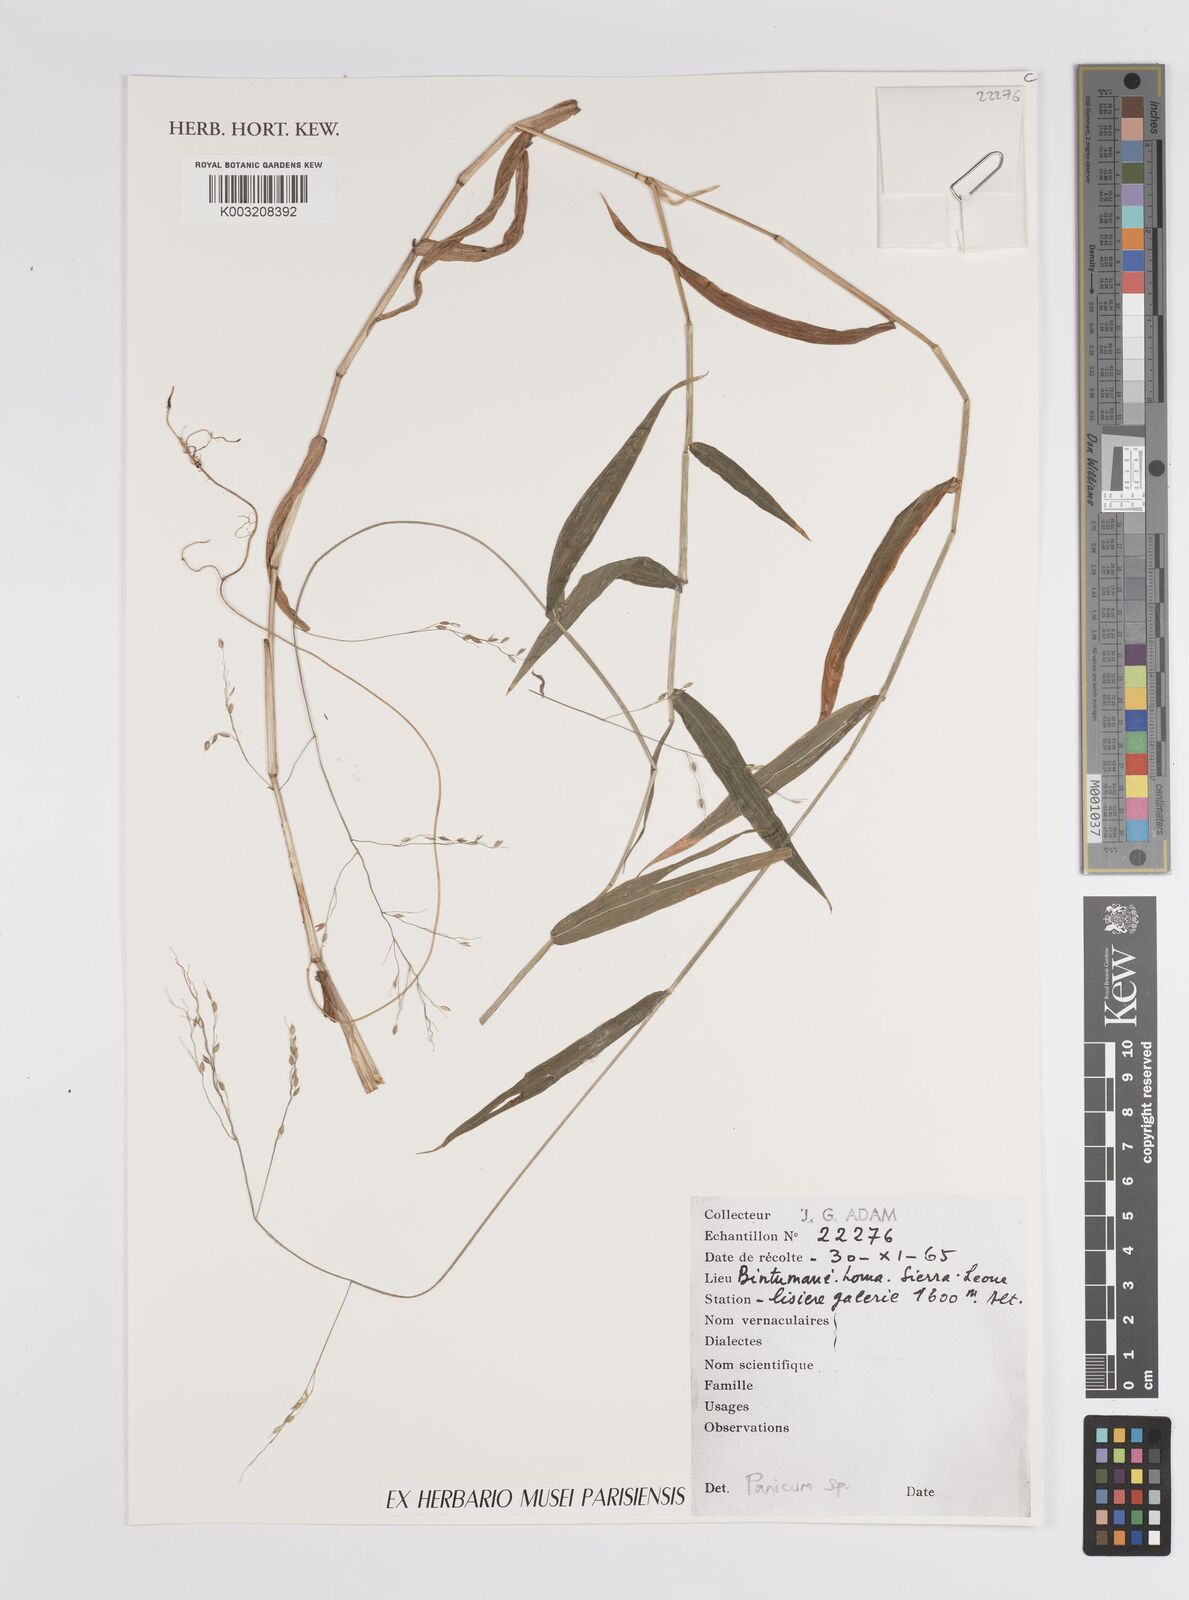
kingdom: Plantae
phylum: Tracheophyta
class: Liliopsida
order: Poales
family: Poaceae
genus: Panicum
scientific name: Panicum
